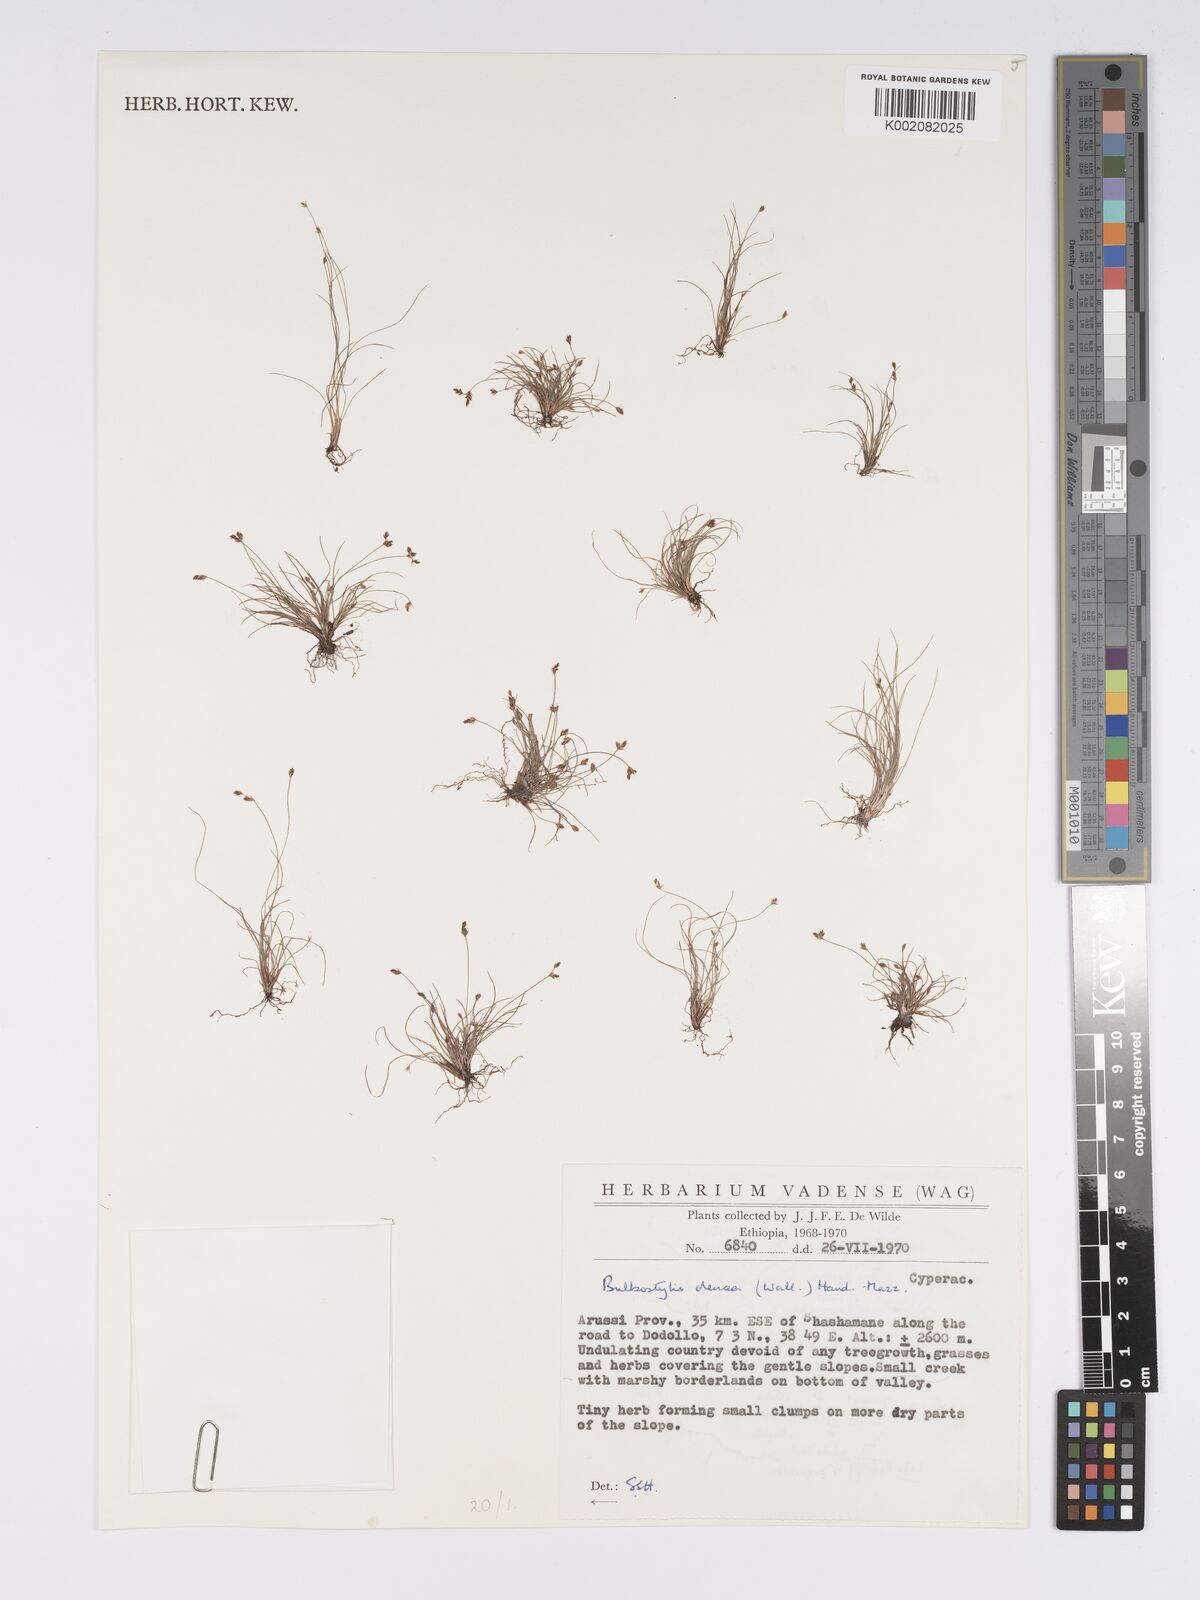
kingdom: Plantae
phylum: Tracheophyta
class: Liliopsida
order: Poales
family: Cyperaceae
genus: Bulbostylis
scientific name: Bulbostylis densa
